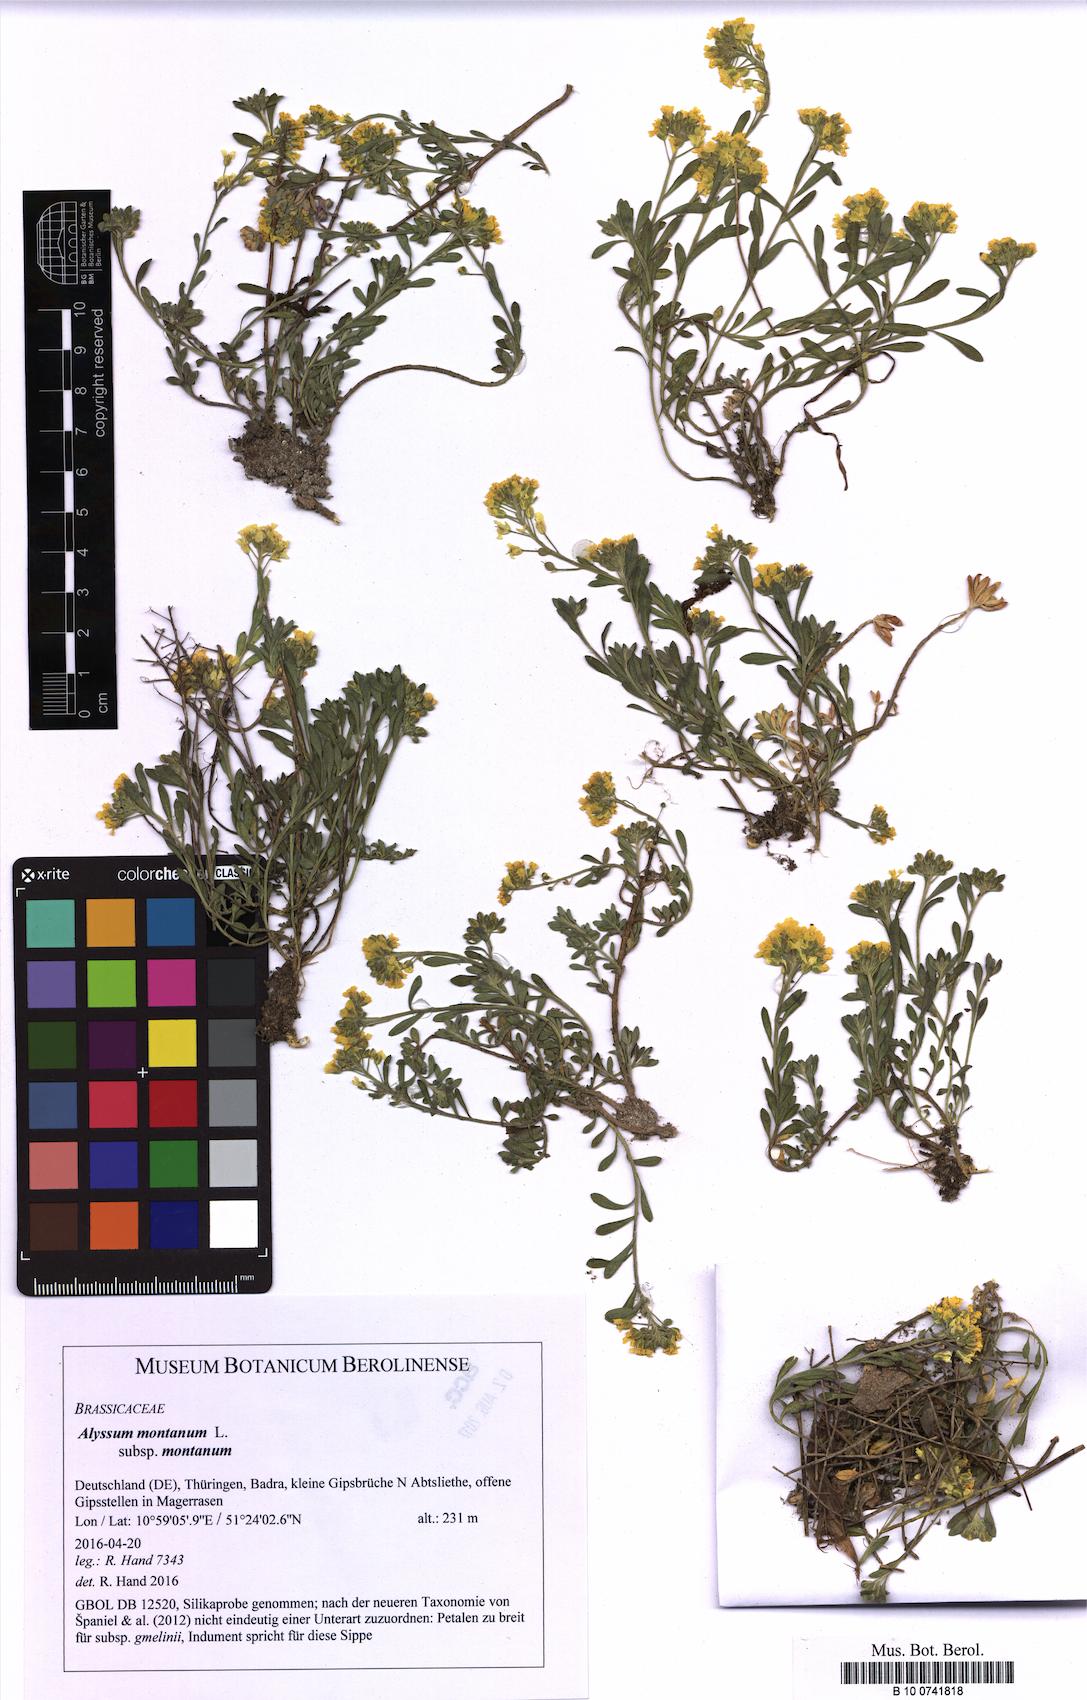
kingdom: Plantae
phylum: Tracheophyta
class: Magnoliopsida
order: Brassicales
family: Brassicaceae
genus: Alyssum
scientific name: Alyssum montanum
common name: Mountain alison
